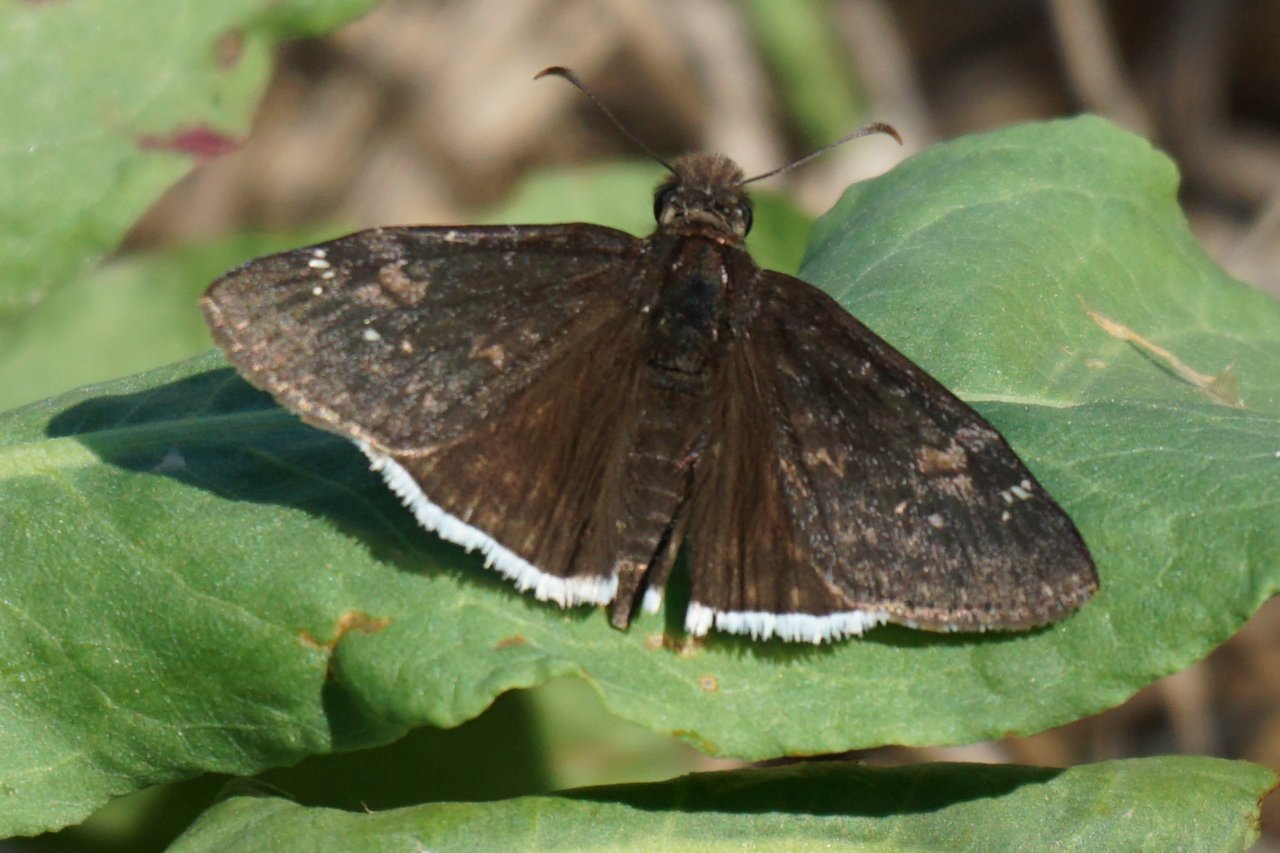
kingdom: Animalia
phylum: Arthropoda
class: Insecta
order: Lepidoptera
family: Hesperiidae
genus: Erynnis
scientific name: Erynnis funeralis
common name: Funereal Duskywing
